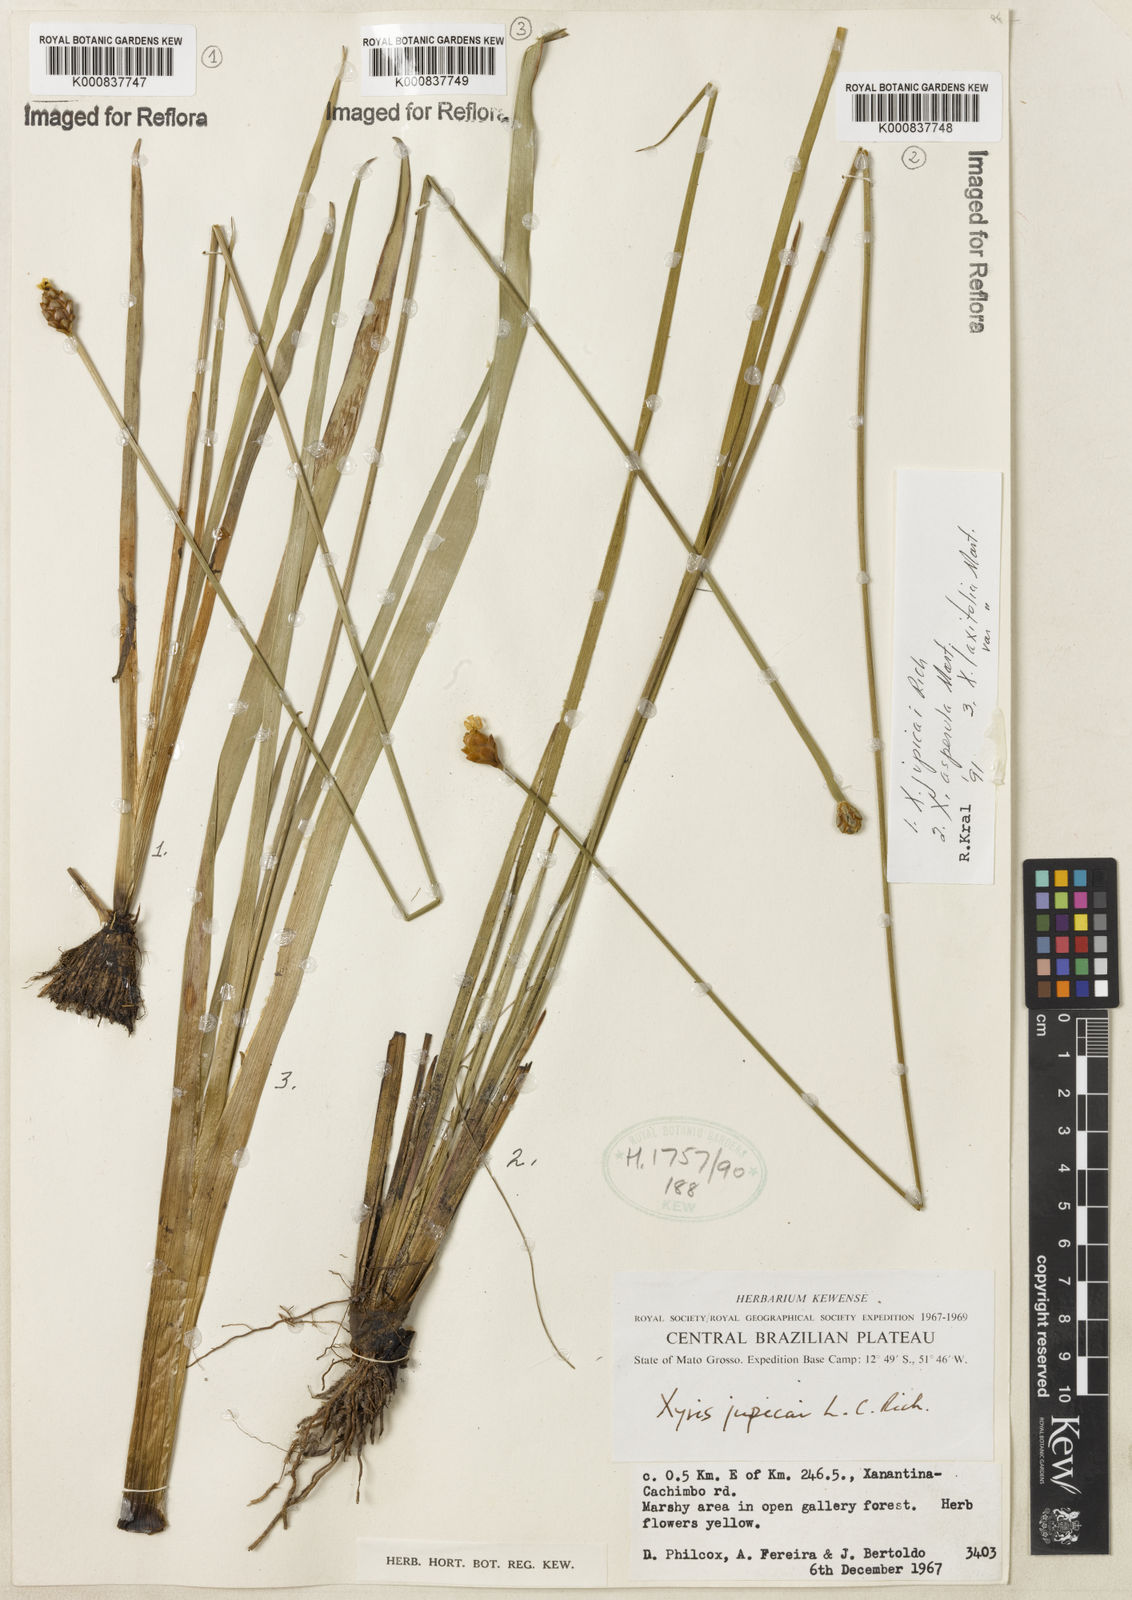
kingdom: Plantae
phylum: Tracheophyta
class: Liliopsida
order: Poales
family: Xyridaceae
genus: Xyris
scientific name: Xyris jupicai
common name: Richard's yelloweyed grass
